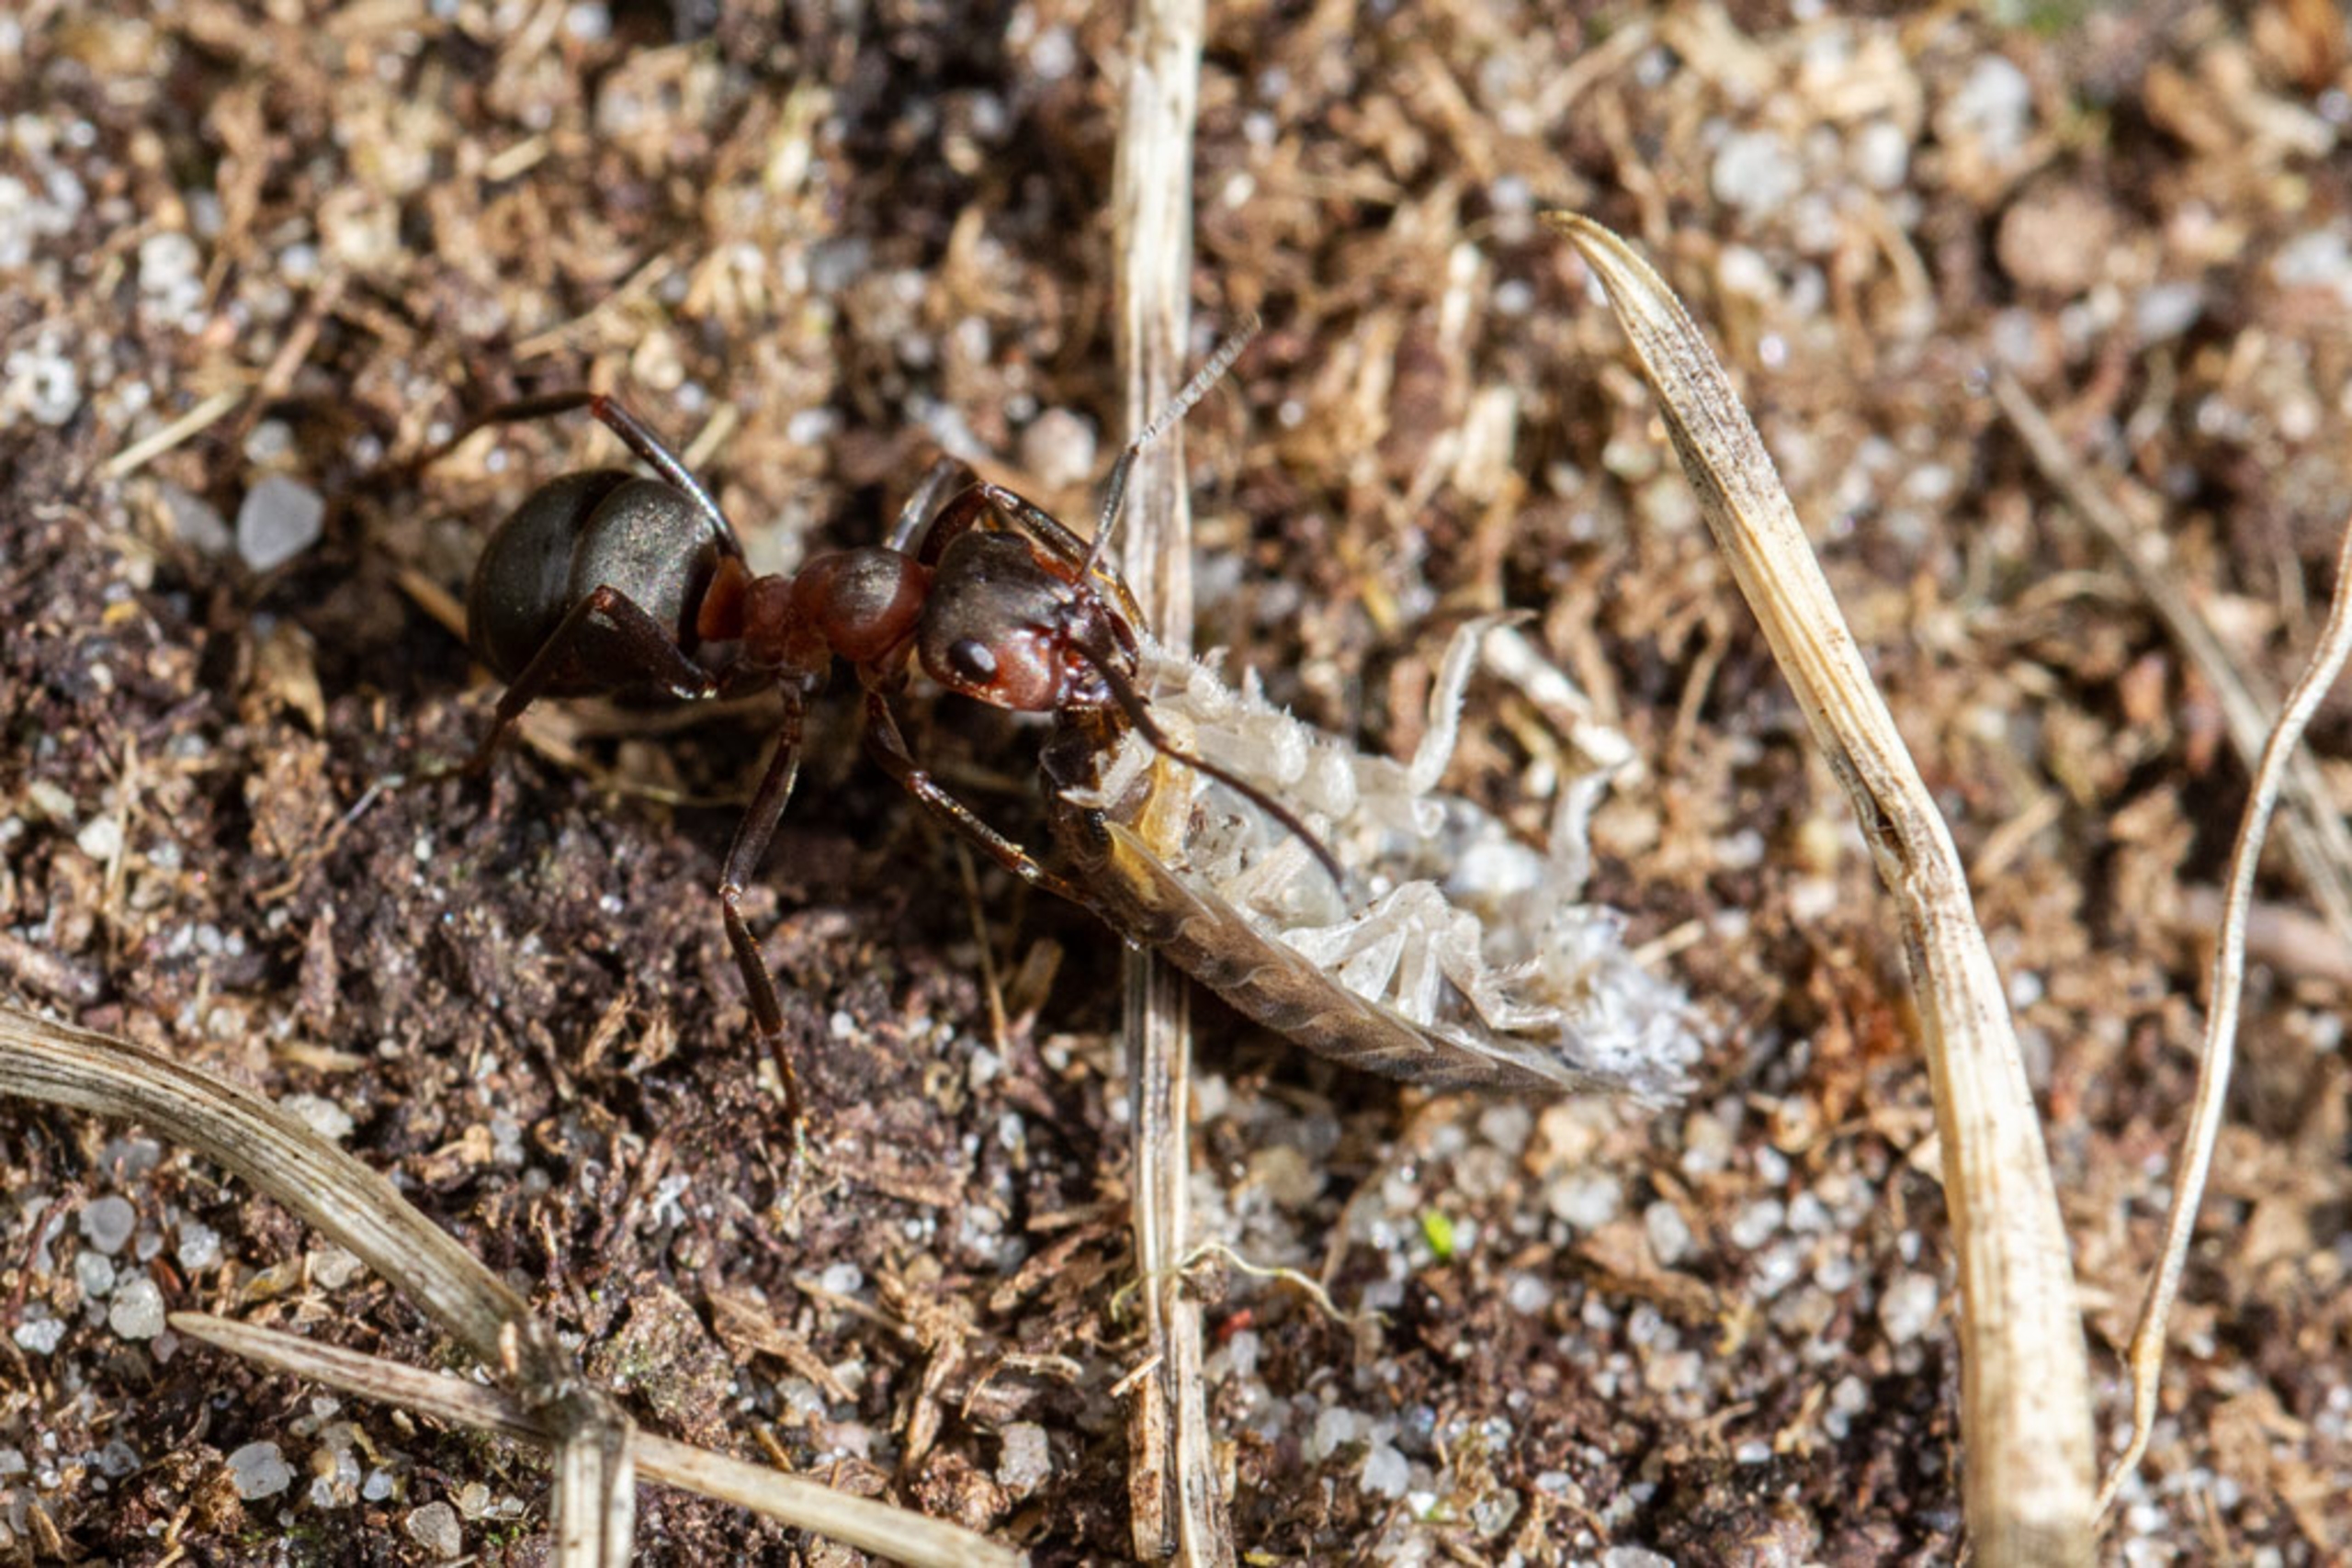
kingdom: Animalia
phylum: Arthropoda
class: Insecta
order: Hymenoptera
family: Formicidae
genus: Formica
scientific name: Formica
